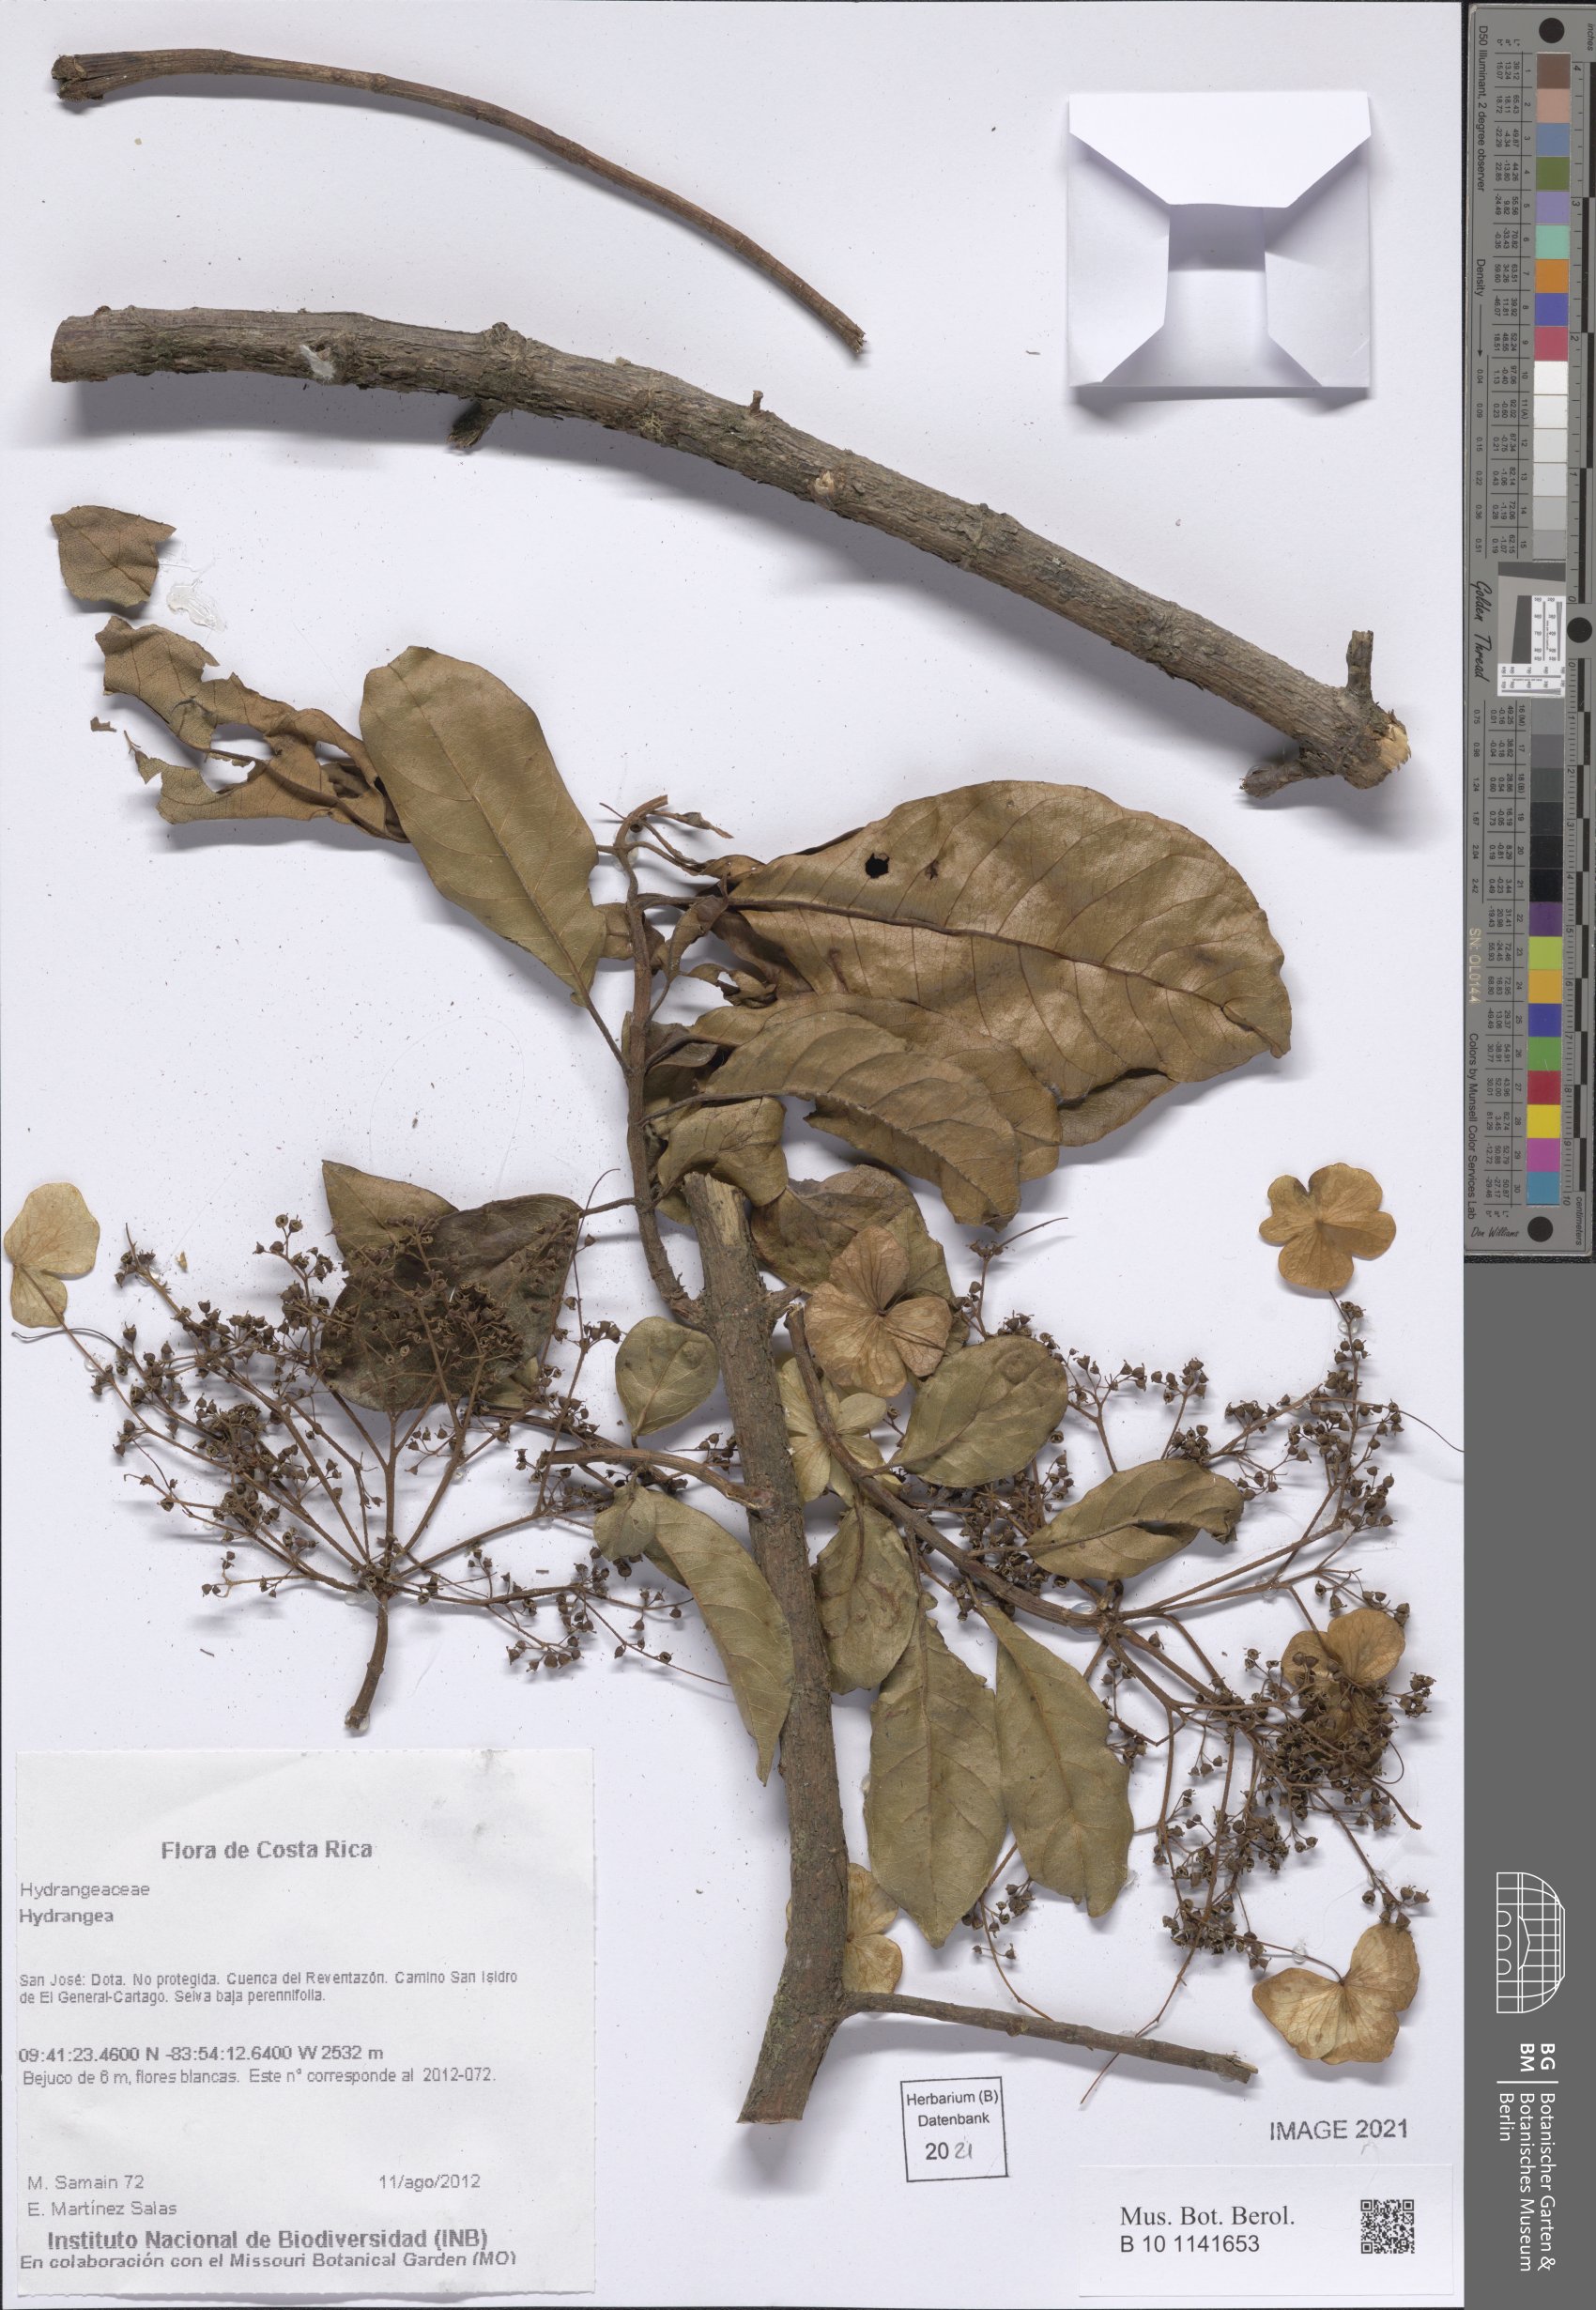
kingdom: Plantae
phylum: Tracheophyta
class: Magnoliopsida
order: Cornales
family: Hydrangeaceae
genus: Hydrangea
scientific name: Hydrangea
